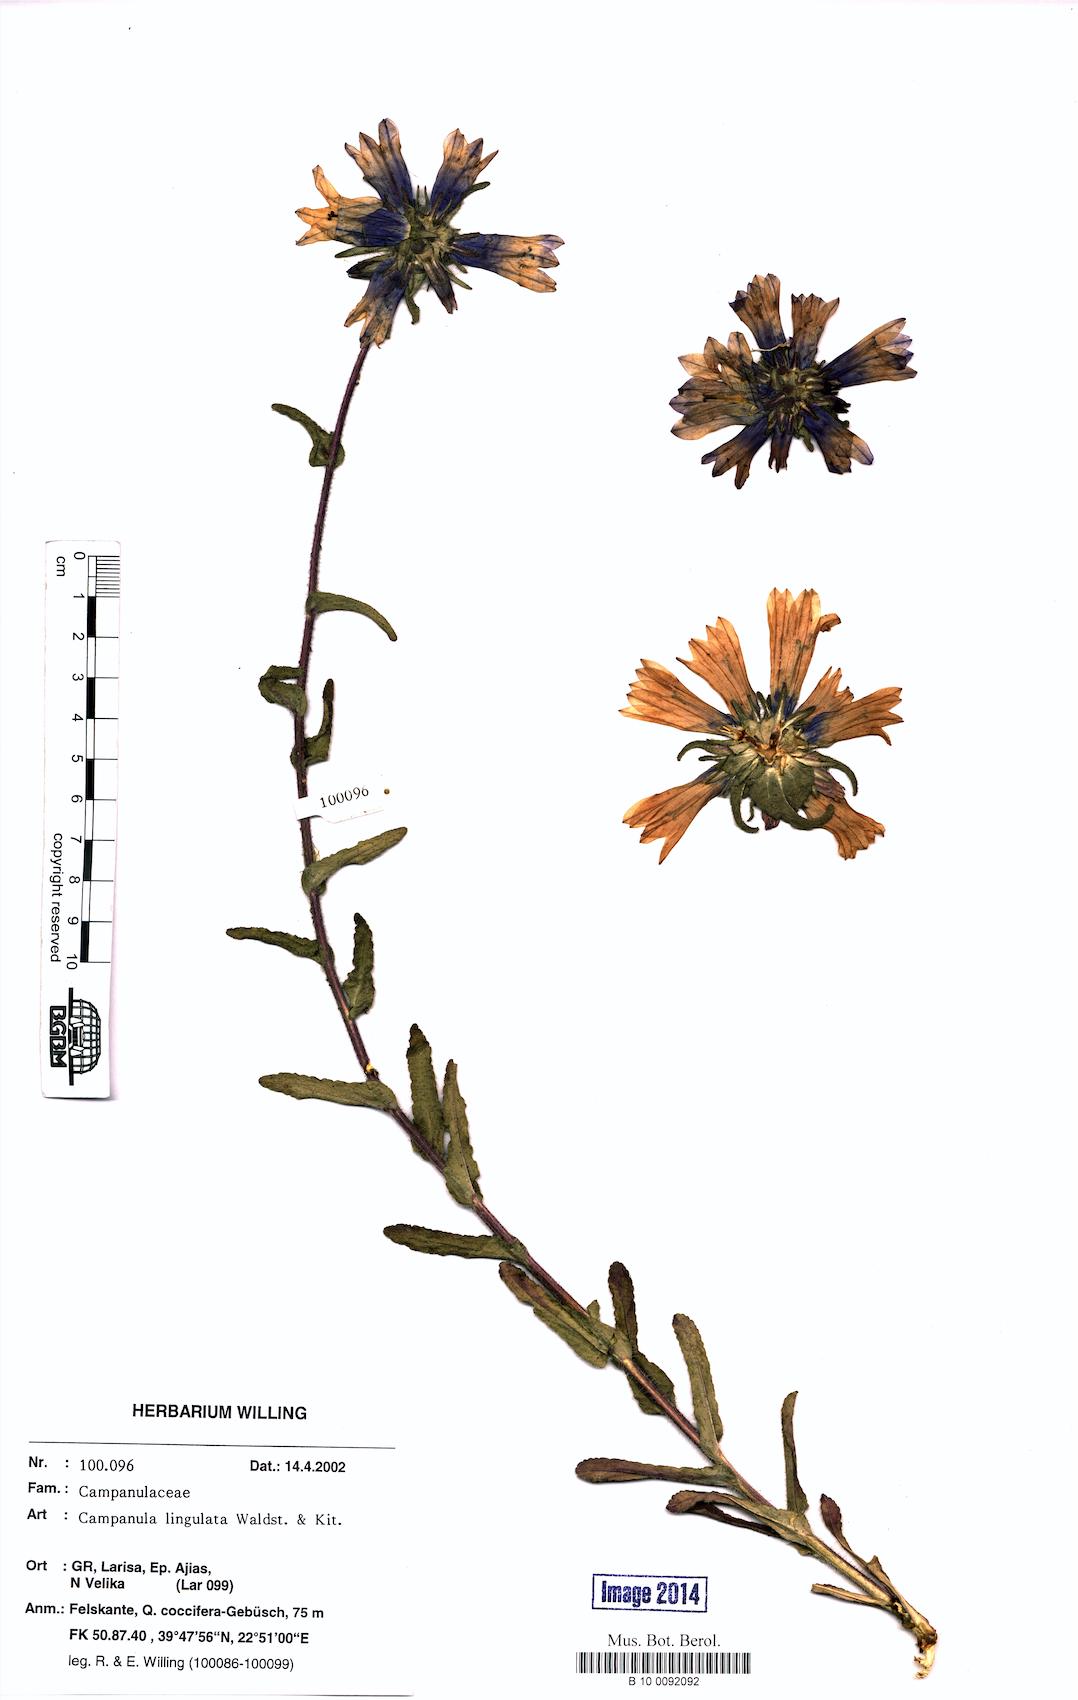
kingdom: Plantae
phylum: Tracheophyta
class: Magnoliopsida
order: Asterales
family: Campanulaceae
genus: Campanula
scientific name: Campanula lingulata
